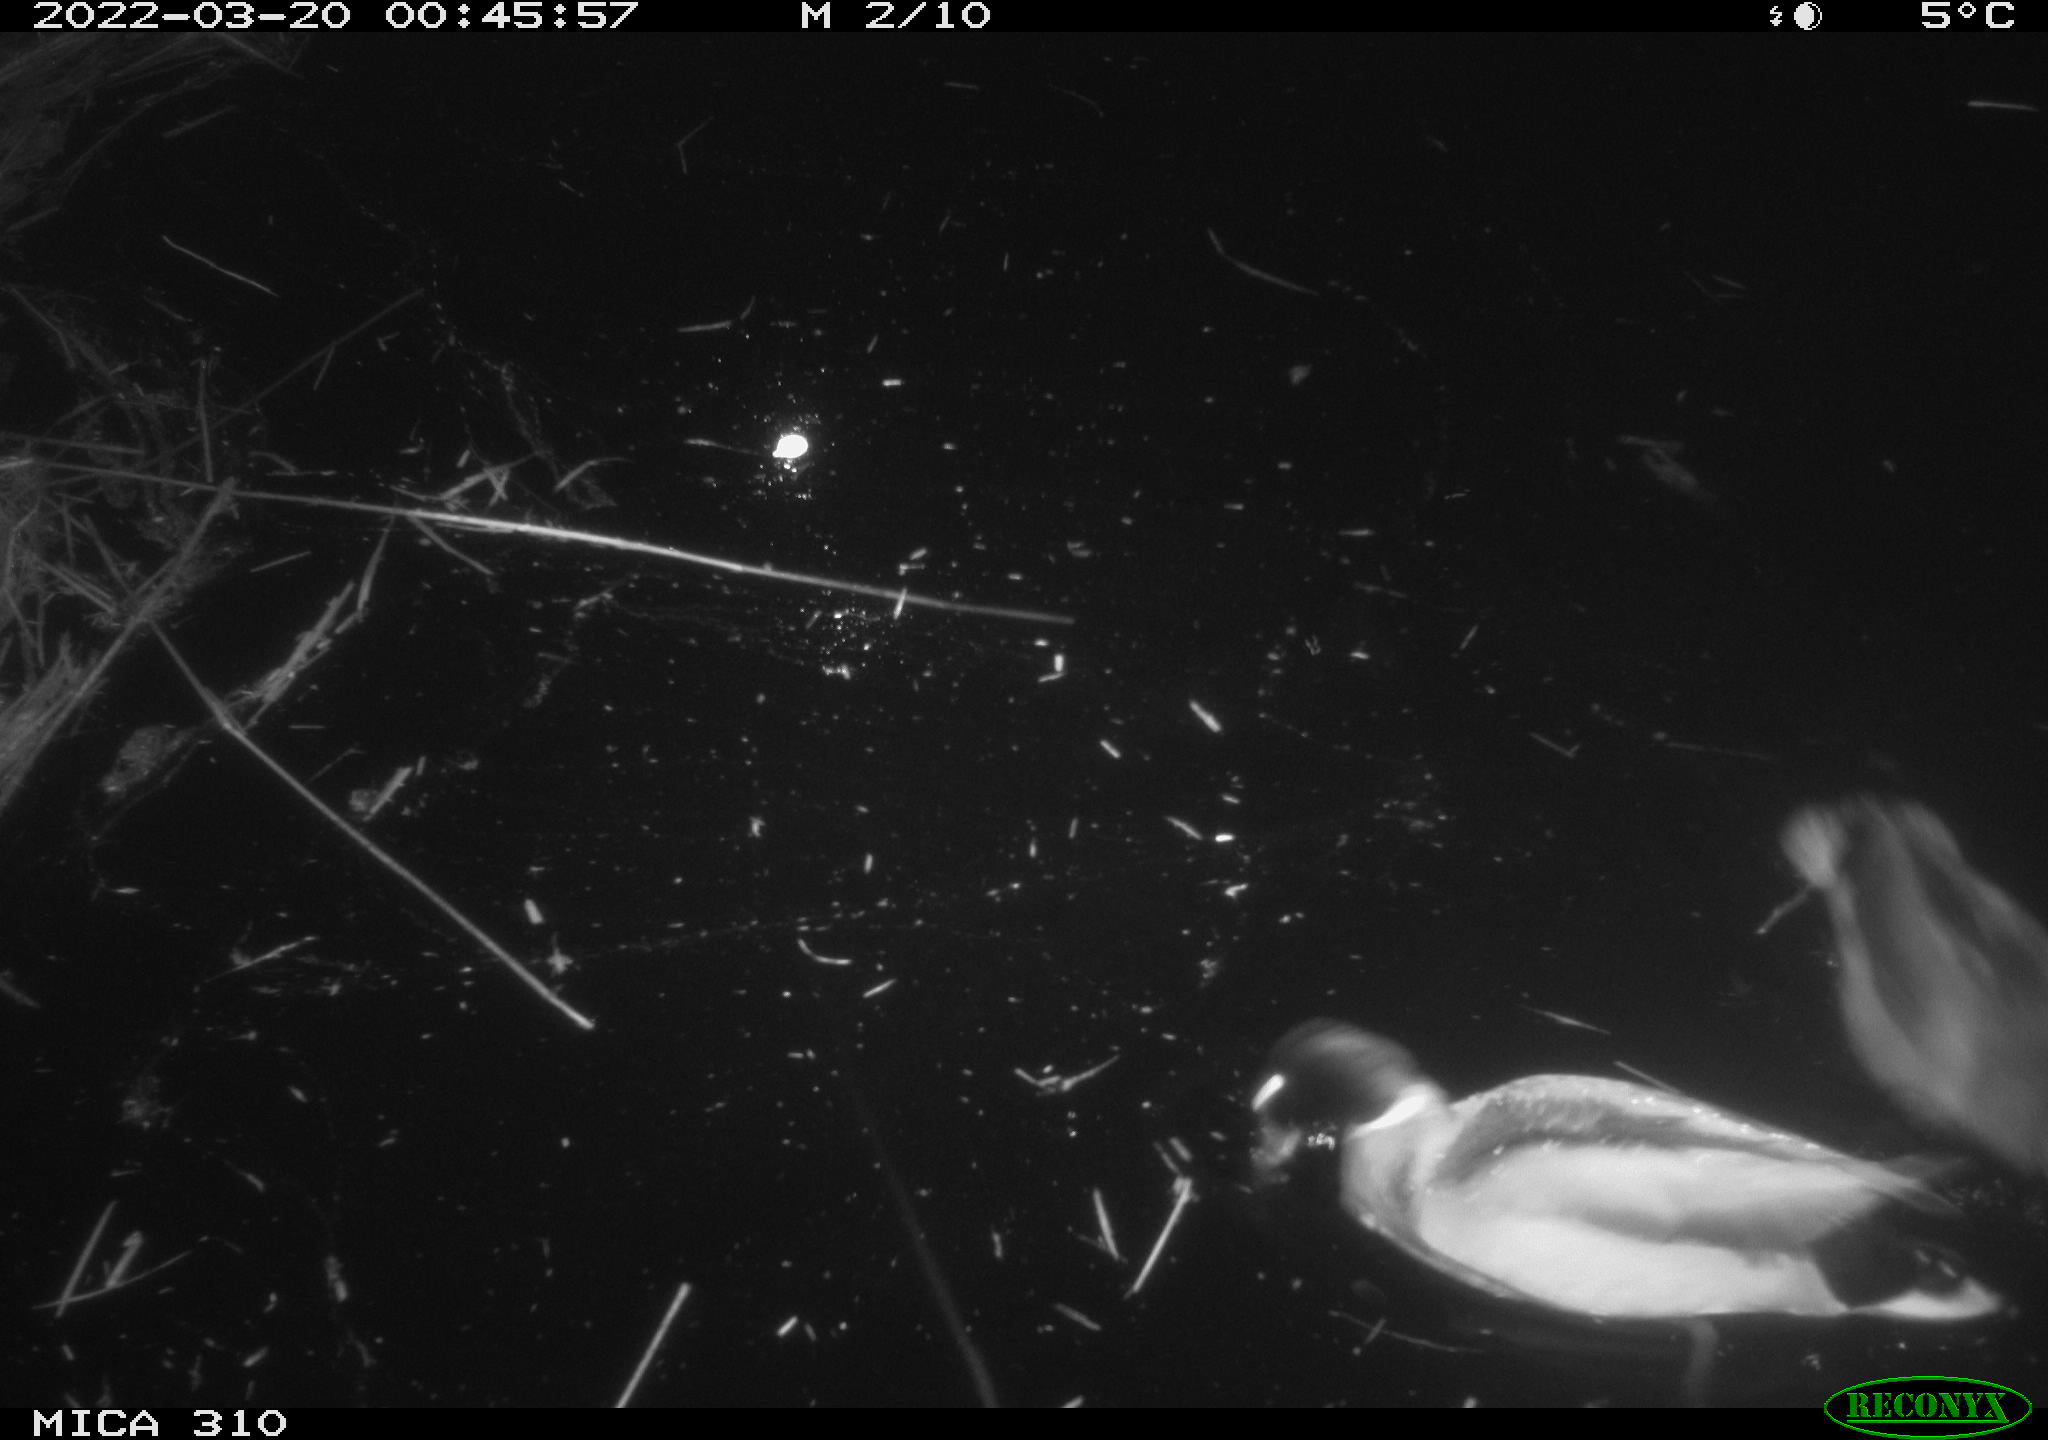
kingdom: Animalia
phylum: Chordata
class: Aves
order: Anseriformes
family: Anatidae
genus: Anas
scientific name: Anas platyrhynchos
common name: Mallard
